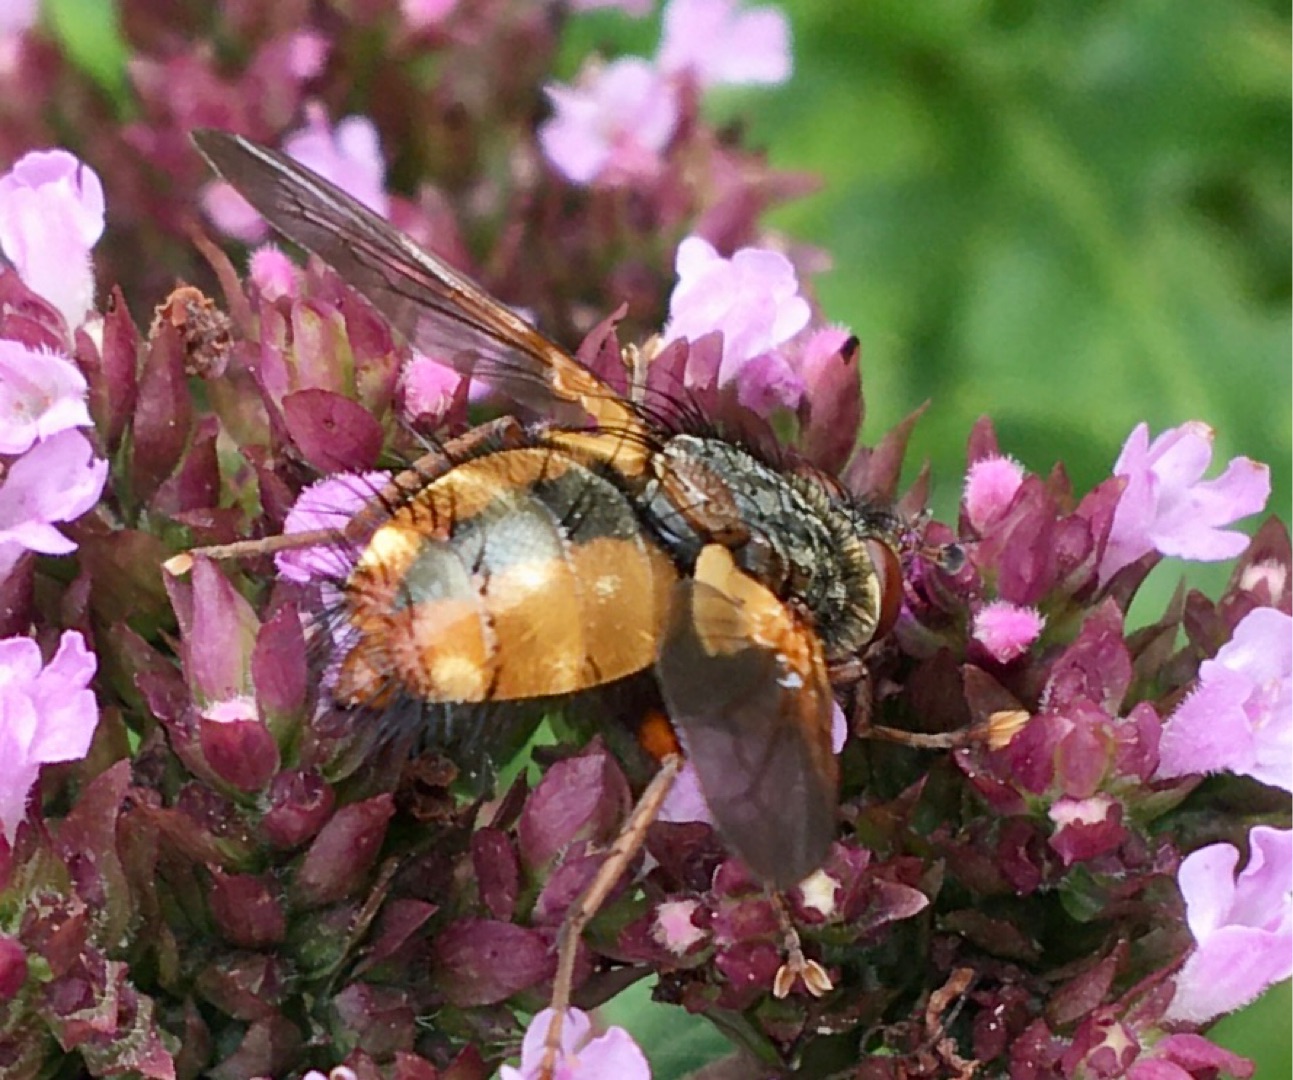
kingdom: Animalia
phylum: Arthropoda
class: Insecta
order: Diptera
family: Tachinidae
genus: Tachina
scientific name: Tachina fera
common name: Mellemfluen oskar
